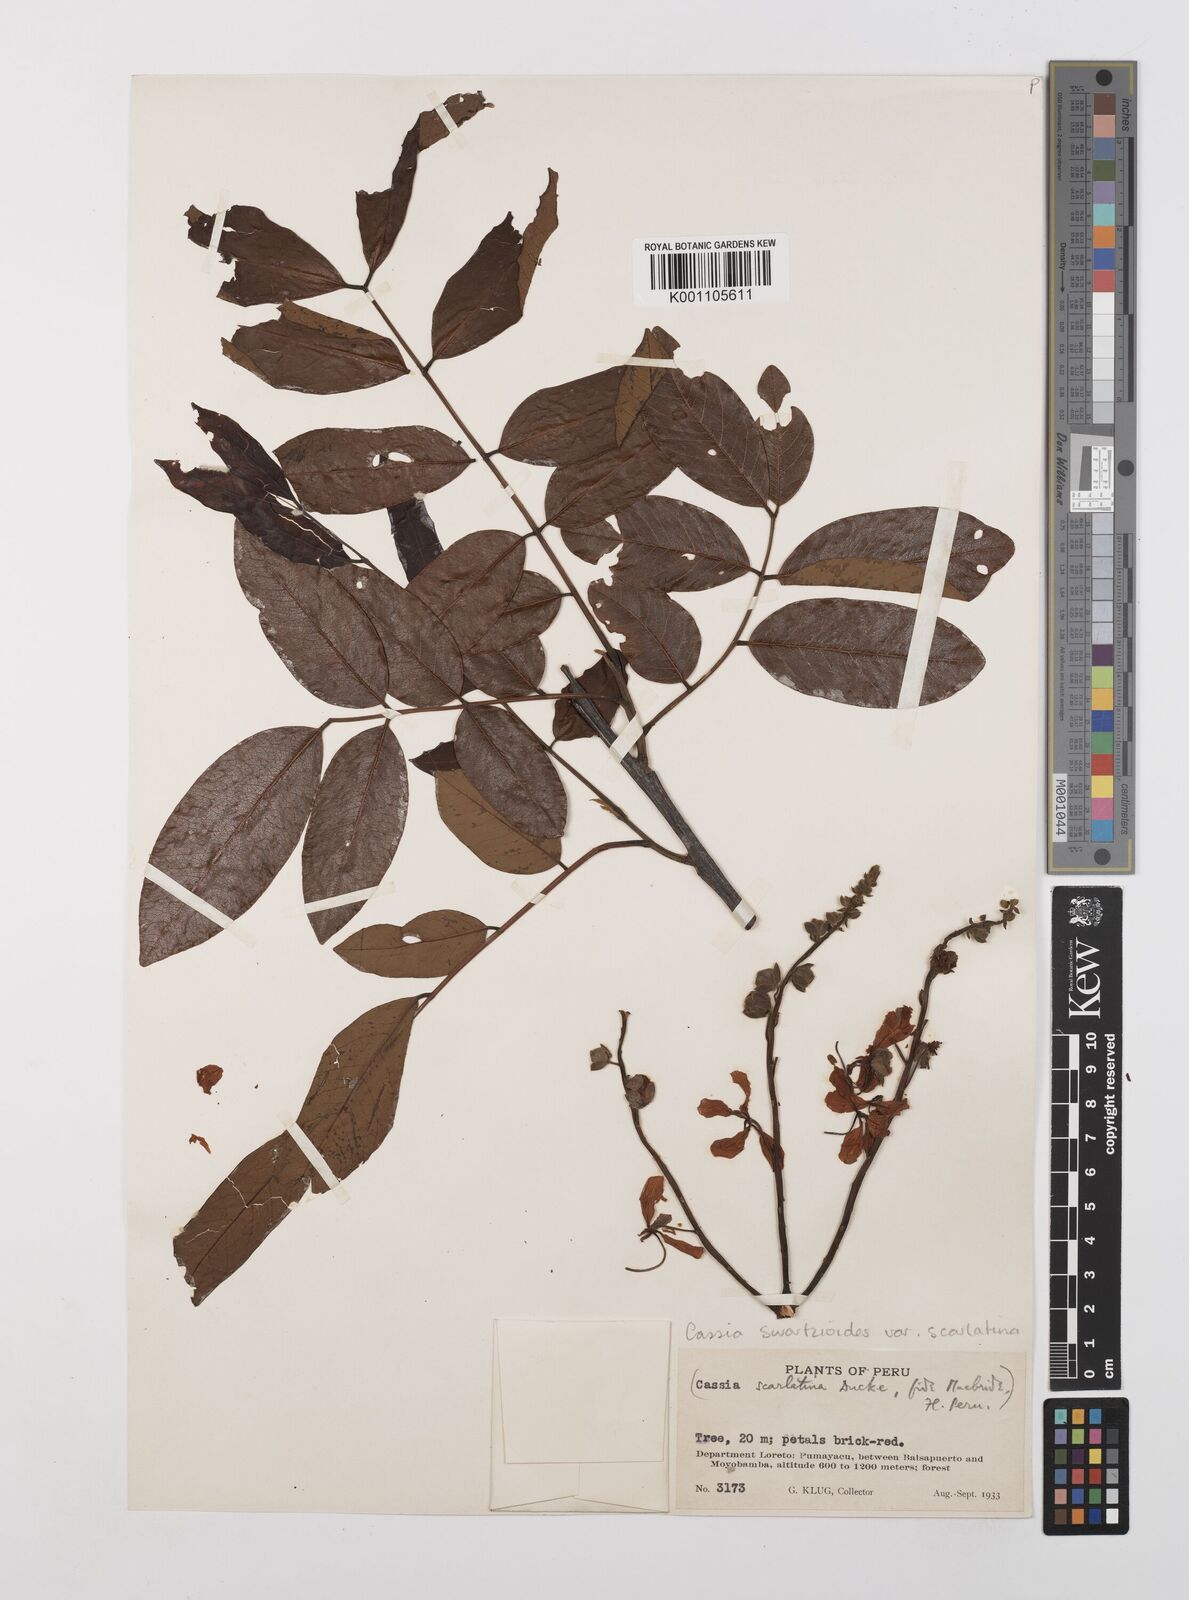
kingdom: Plantae
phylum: Tracheophyta
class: Magnoliopsida
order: Fabales
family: Fabaceae
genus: Cassia
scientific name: Cassia swartzioides
